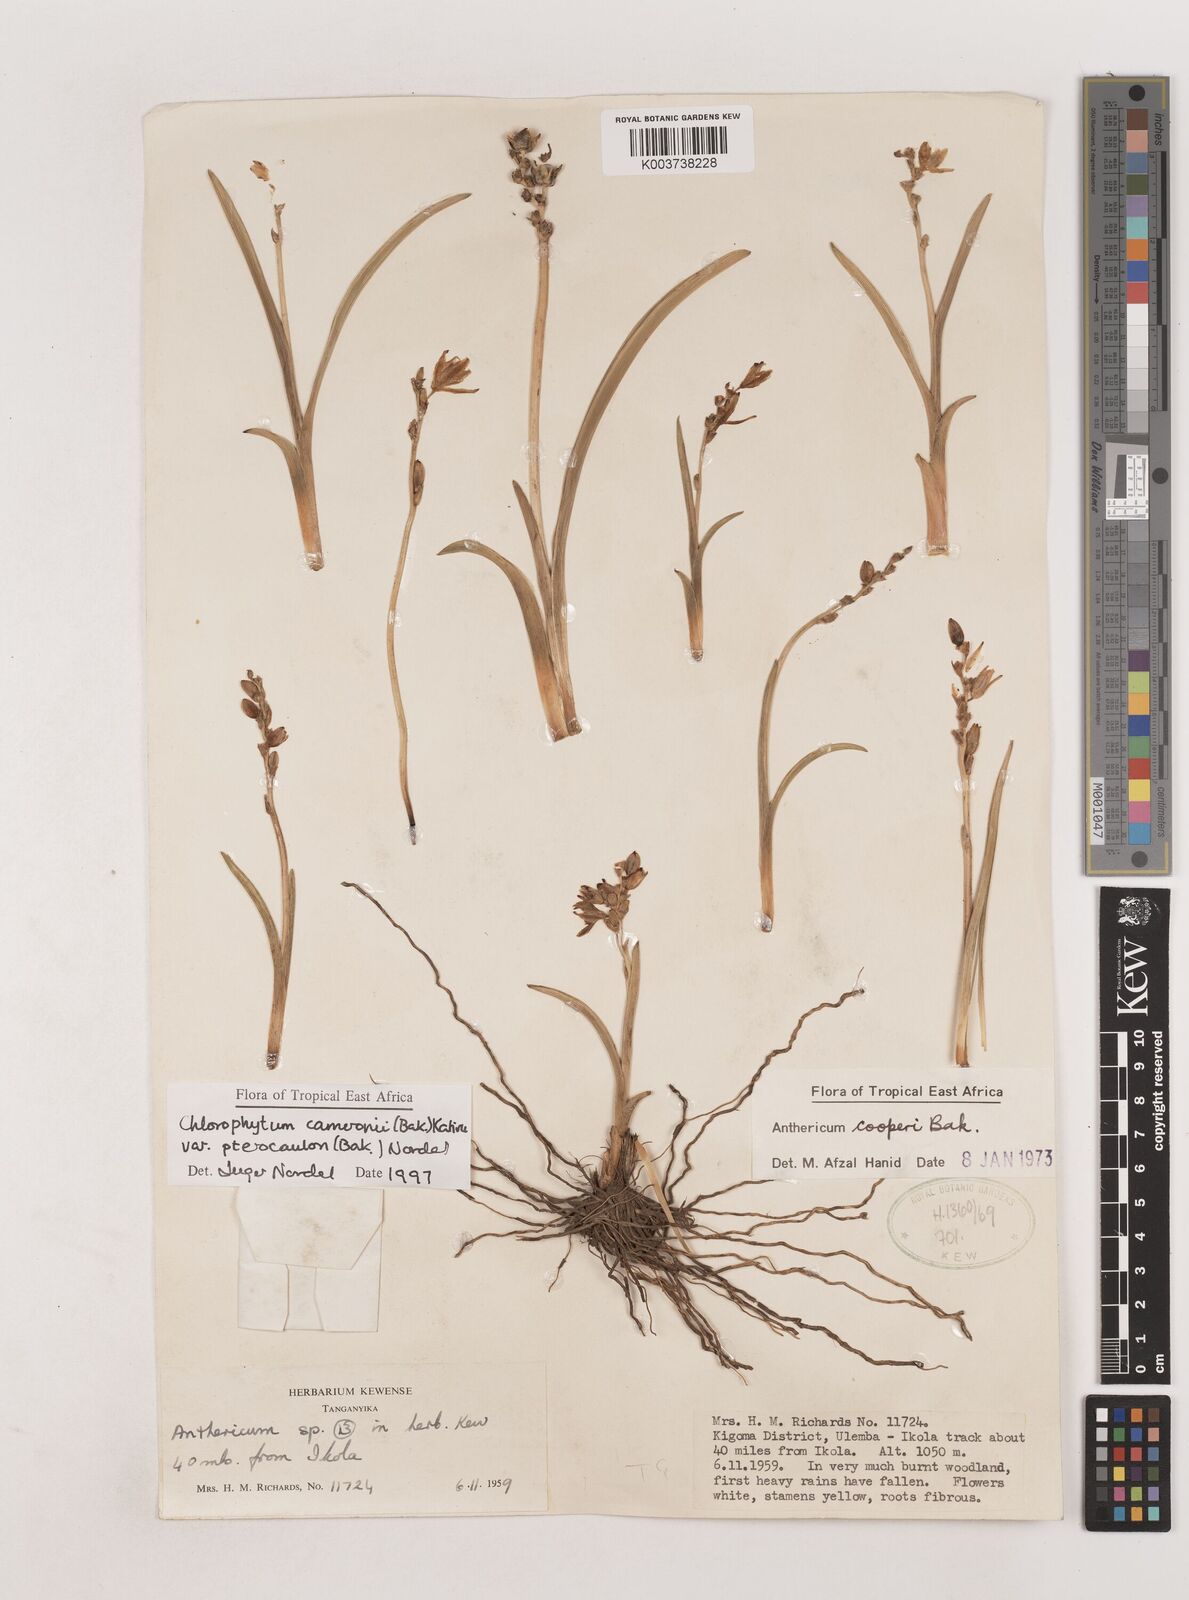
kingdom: Plantae
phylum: Tracheophyta
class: Liliopsida
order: Asparagales
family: Asparagaceae
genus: Chlorophytum
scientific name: Chlorophytum cameronii
